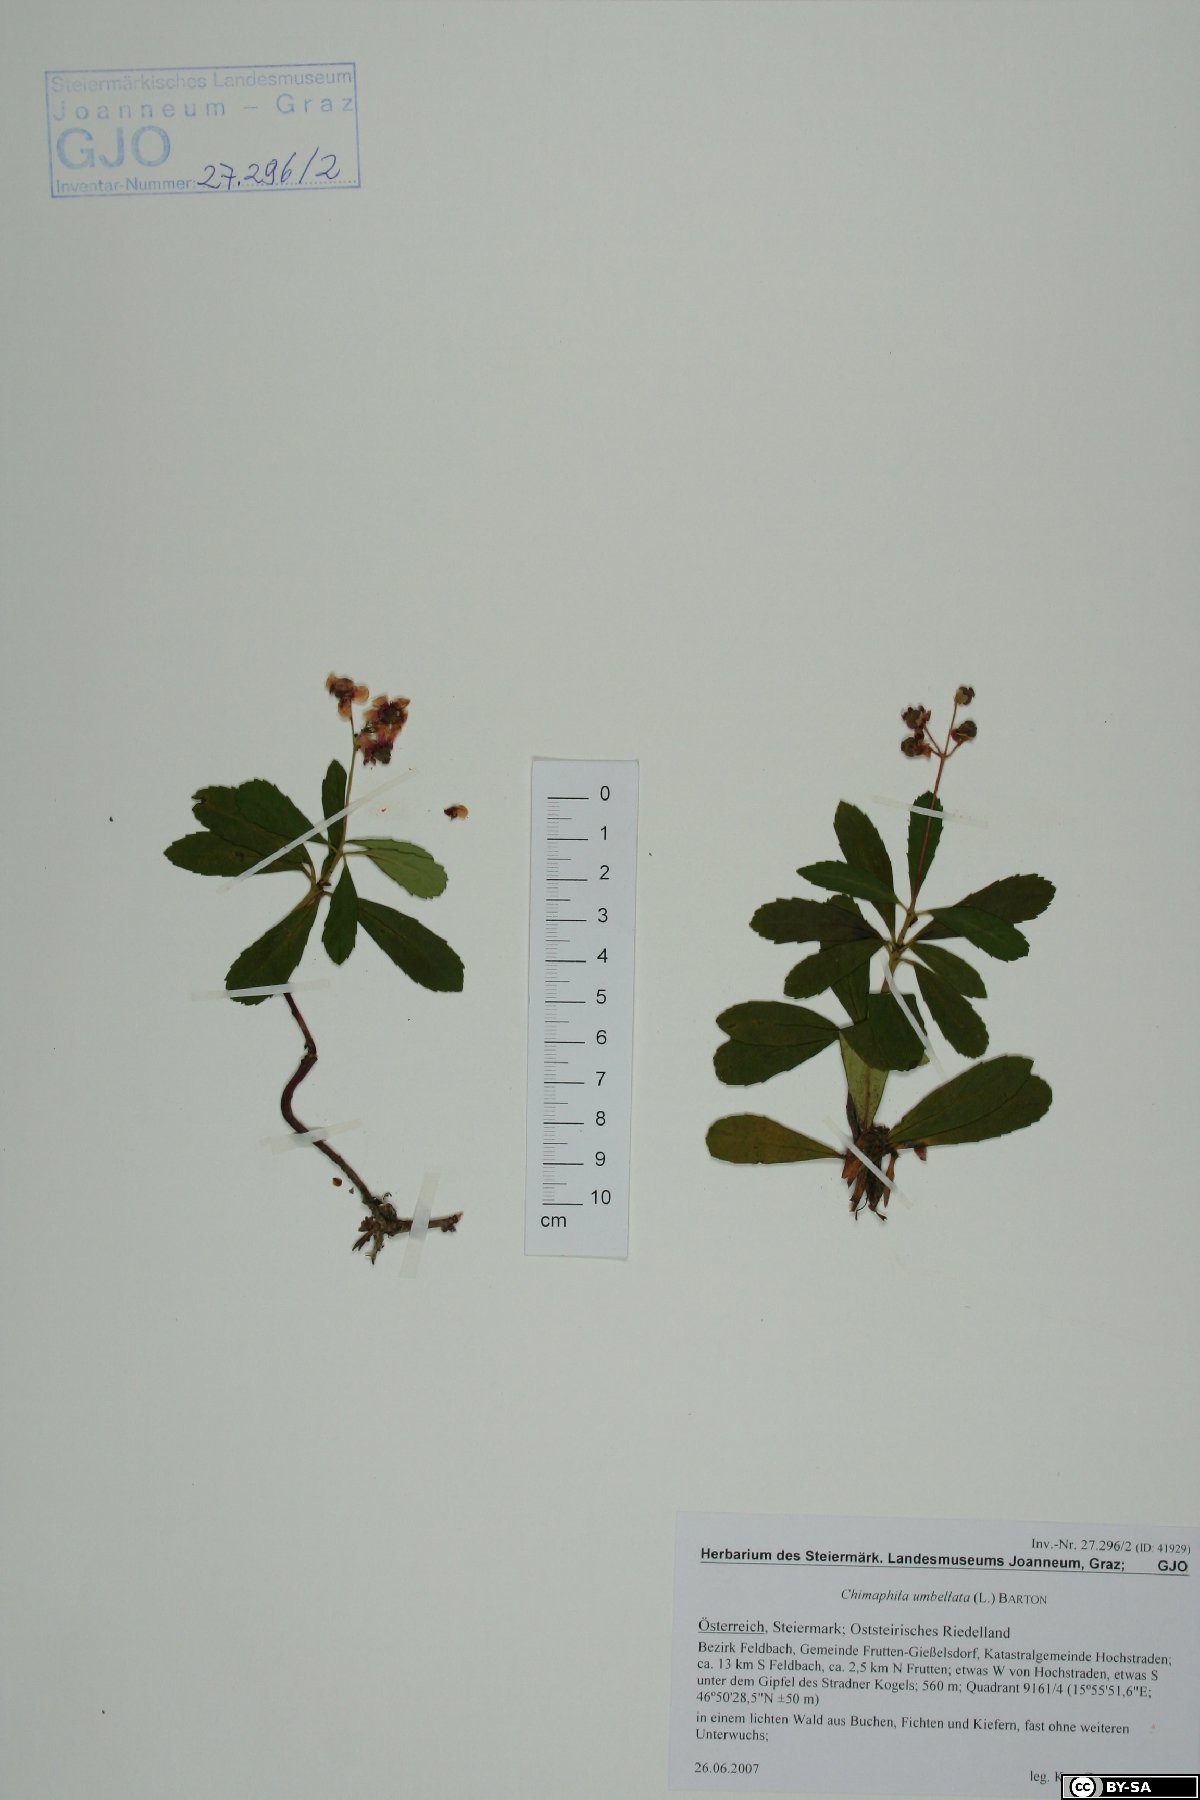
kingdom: Fungi
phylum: Basidiomycota
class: Agaricomycetes
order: Russulales
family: Peniophoraceae
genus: Peniophora
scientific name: Peniophora pithya
